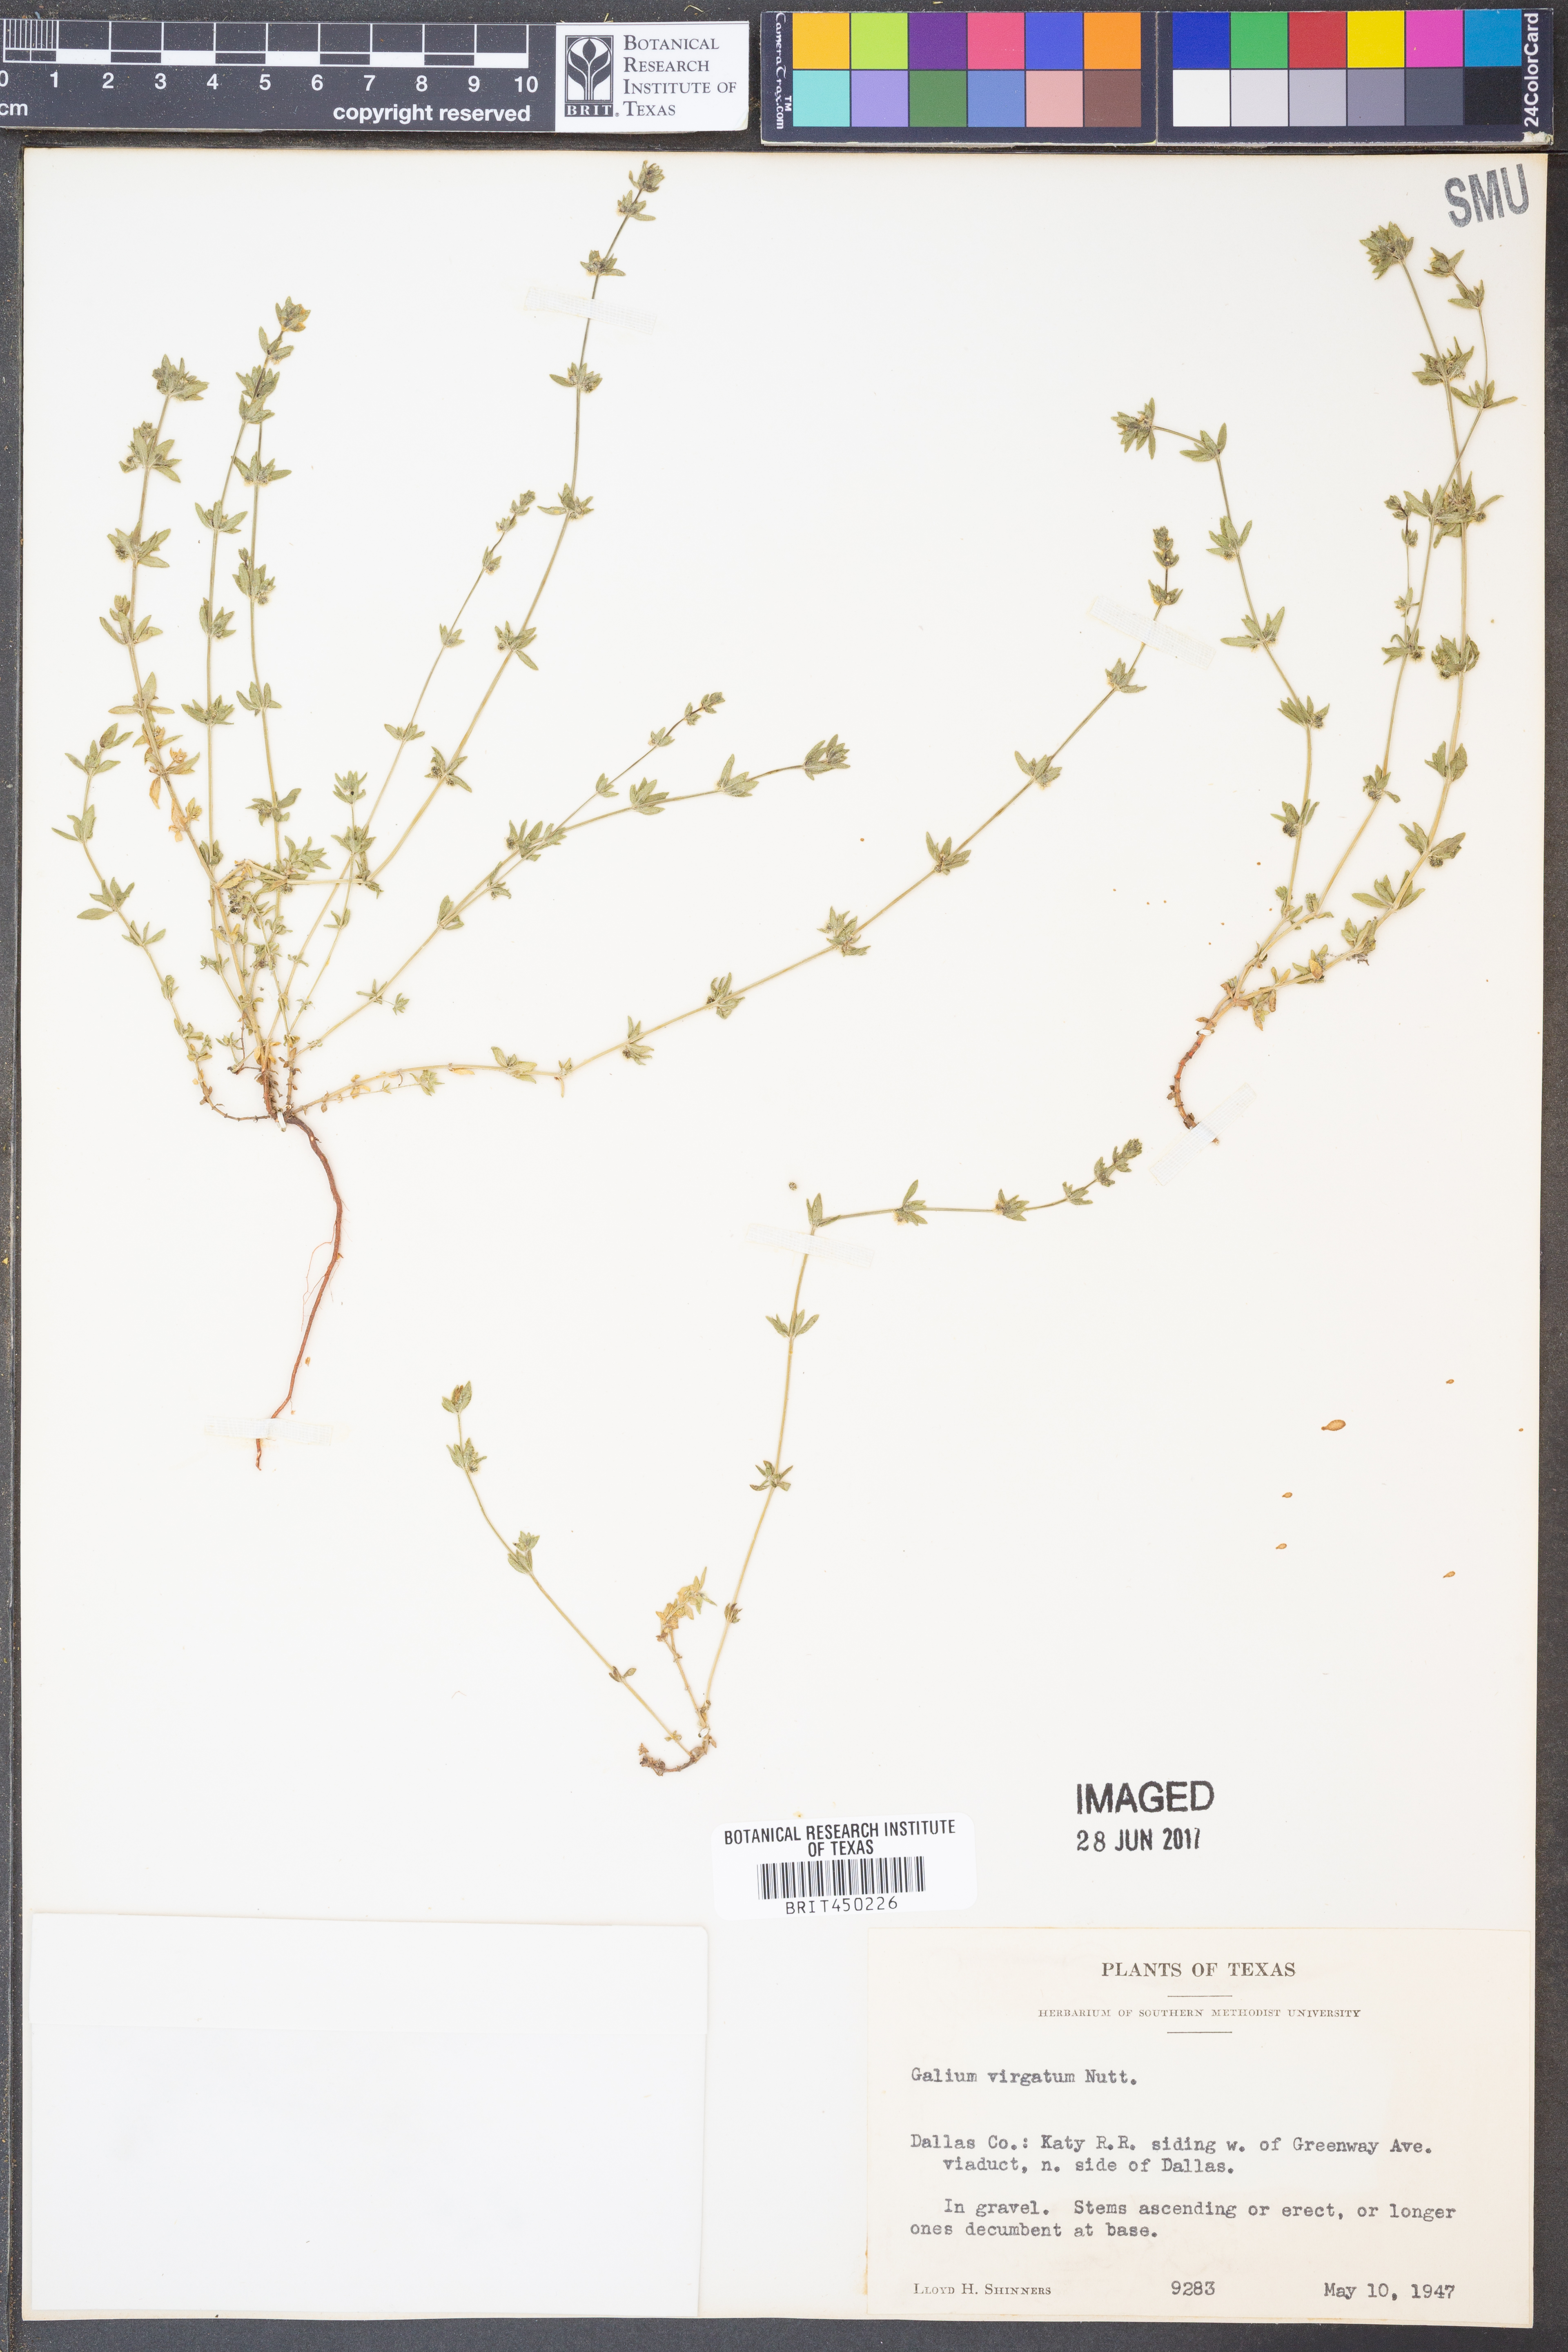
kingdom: Plantae
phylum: Tracheophyta
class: Magnoliopsida
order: Gentianales
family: Rubiaceae
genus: Galium
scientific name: Galium virgatum
